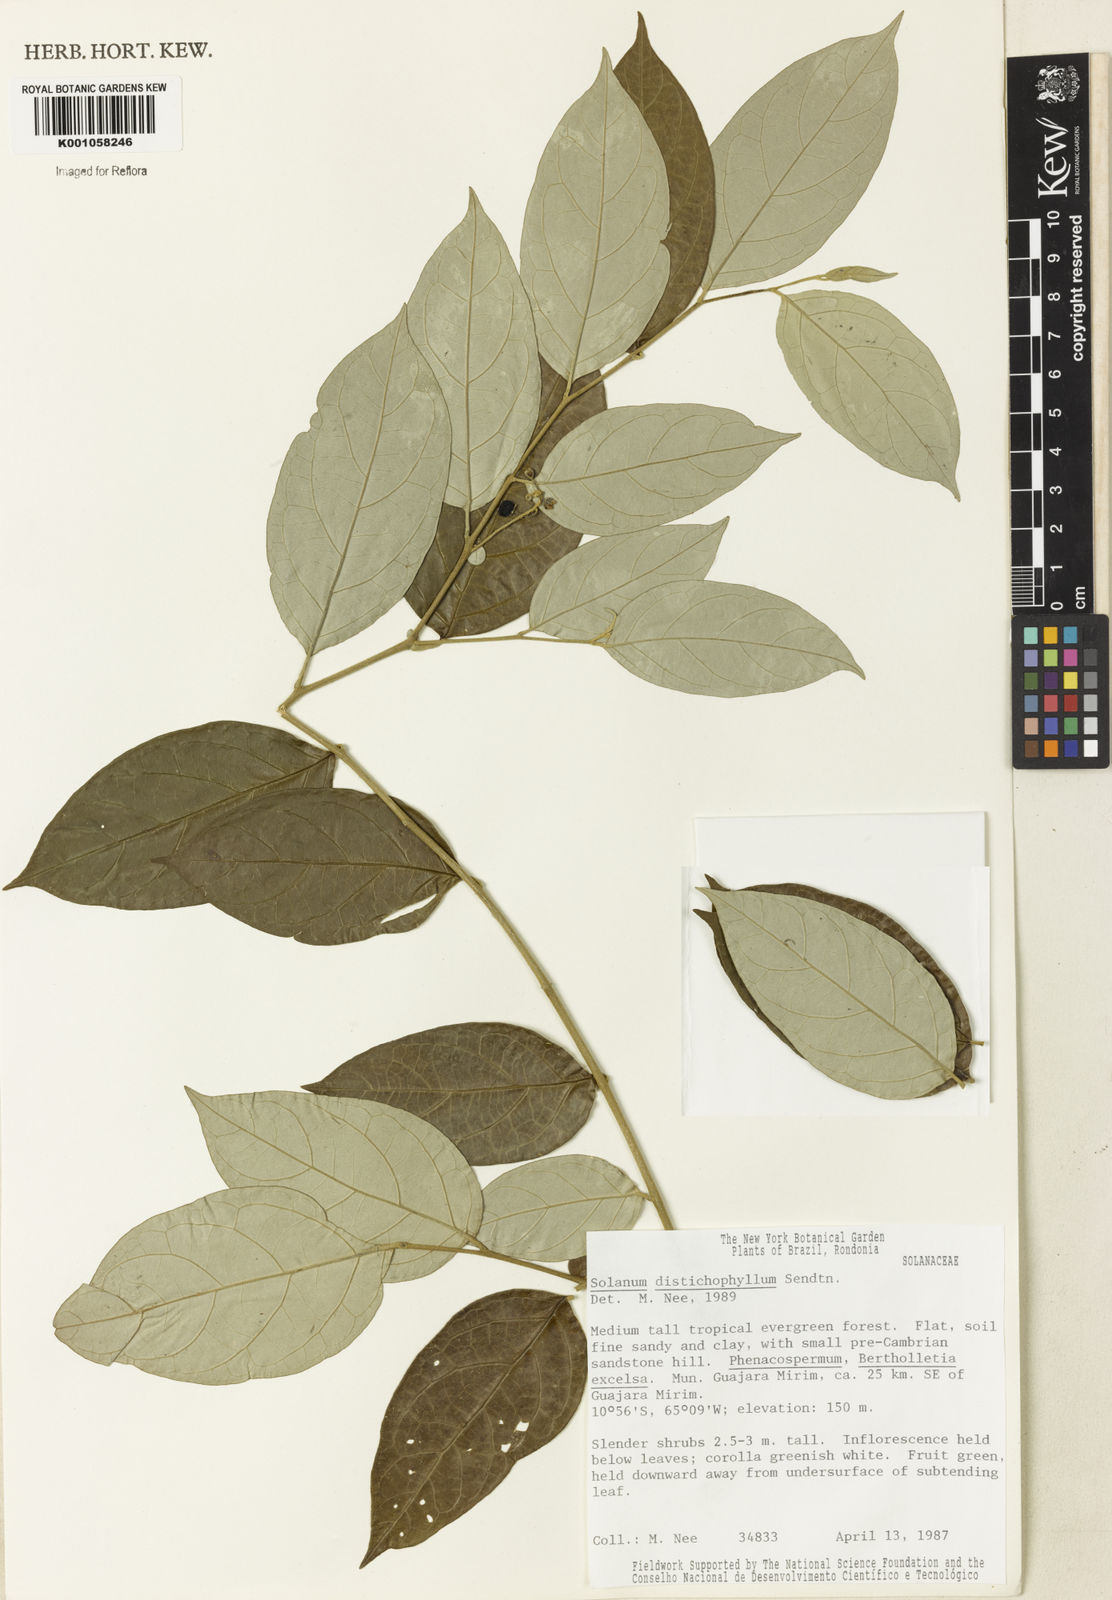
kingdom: Plantae
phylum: Tracheophyta
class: Magnoliopsida
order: Solanales
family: Solanaceae
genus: Solanum
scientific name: Solanum distichophyllum
